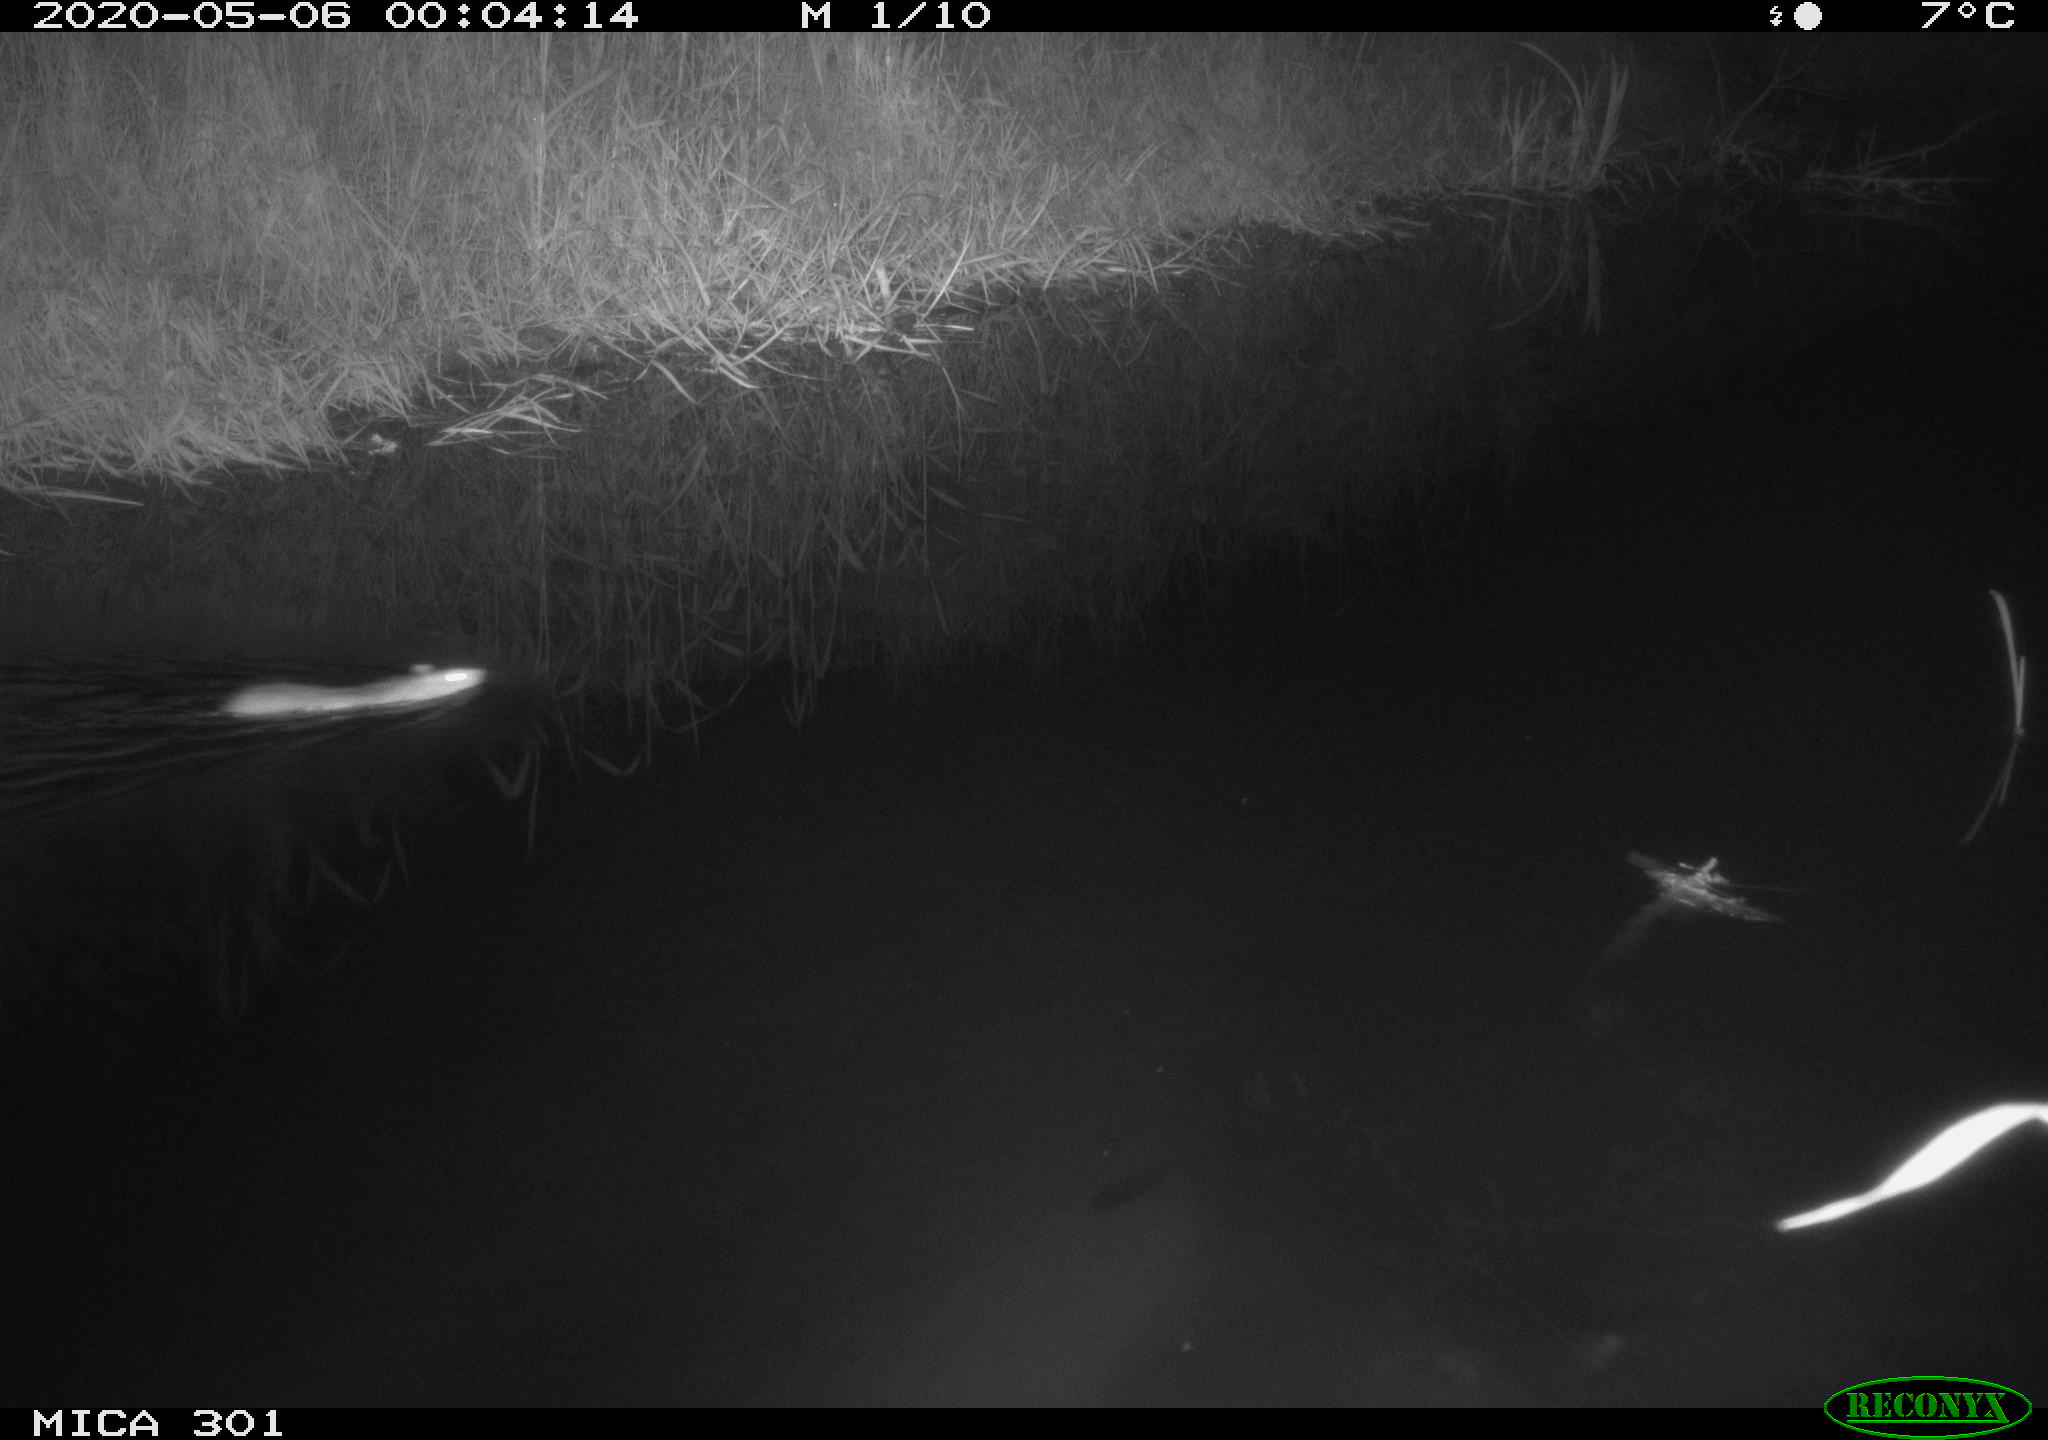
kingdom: Animalia
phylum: Chordata
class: Mammalia
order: Rodentia
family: Muridae
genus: Rattus
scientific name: Rattus norvegicus
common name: Brown rat
